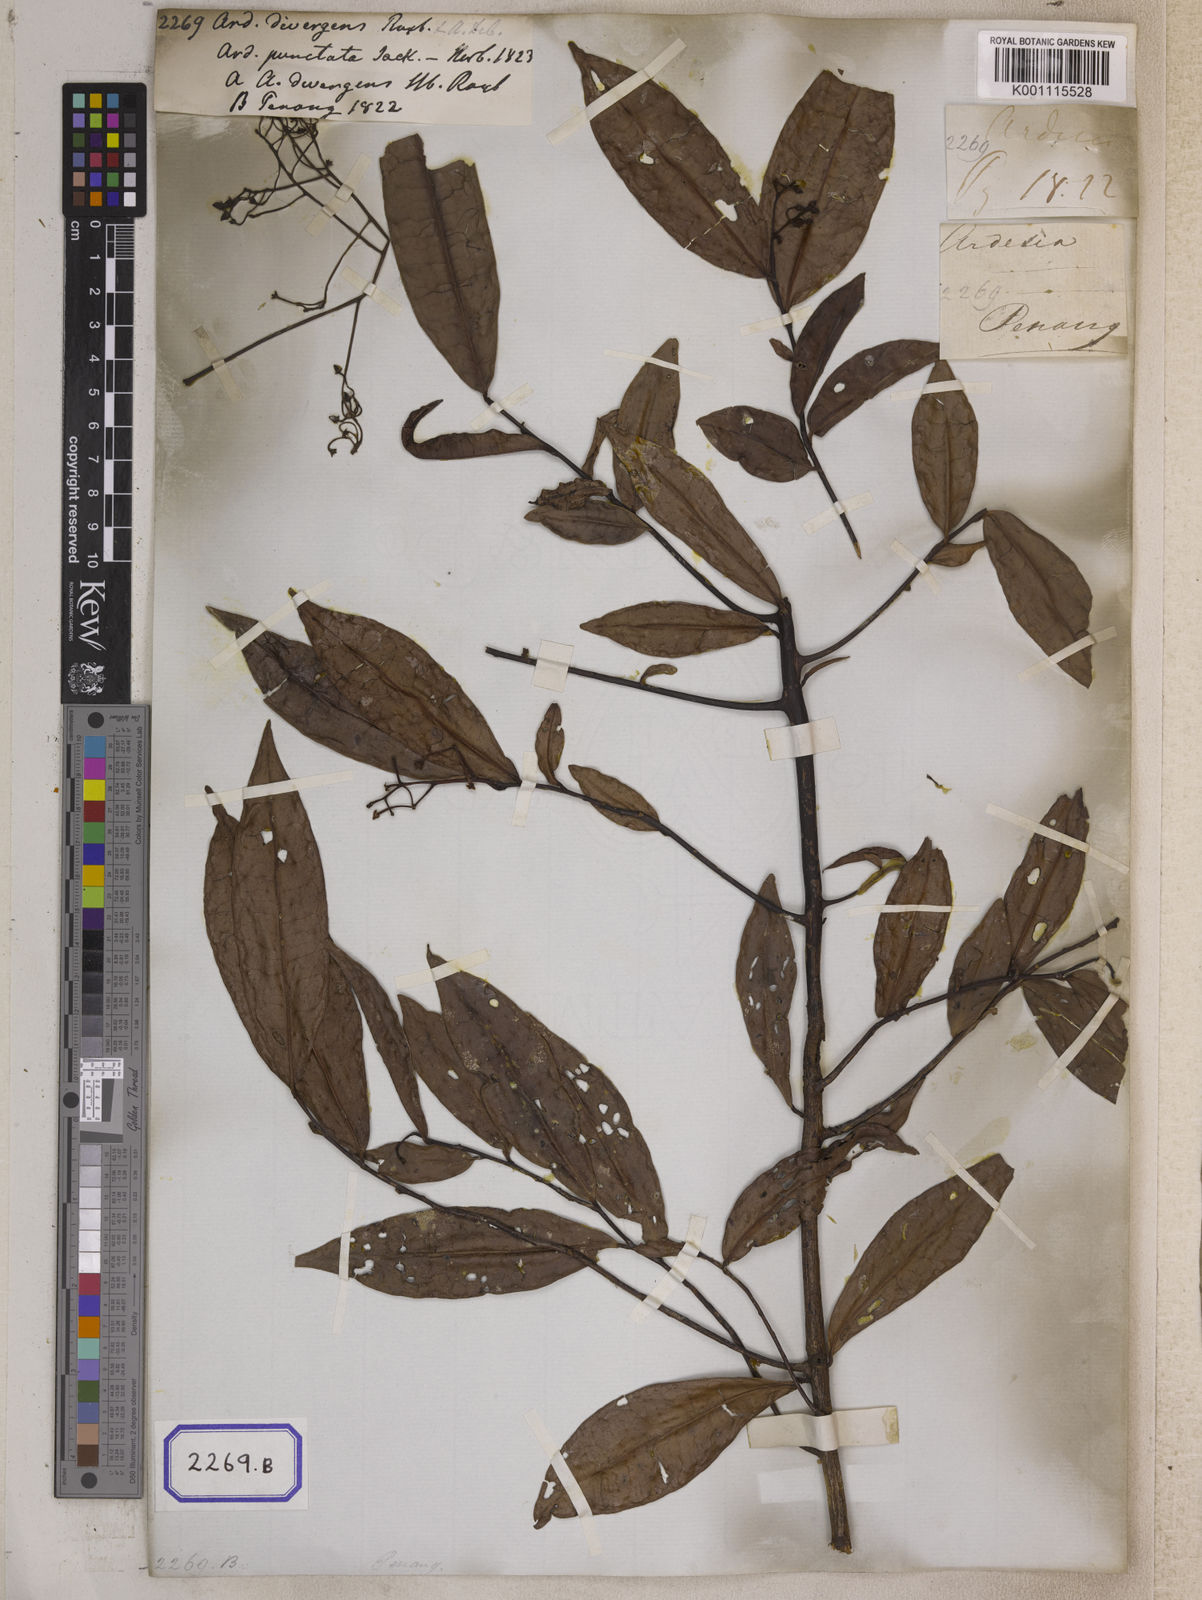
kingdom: Plantae
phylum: Tracheophyta
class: Magnoliopsida
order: Ericales
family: Primulaceae
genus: Ardisia
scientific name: Ardisia divergens
